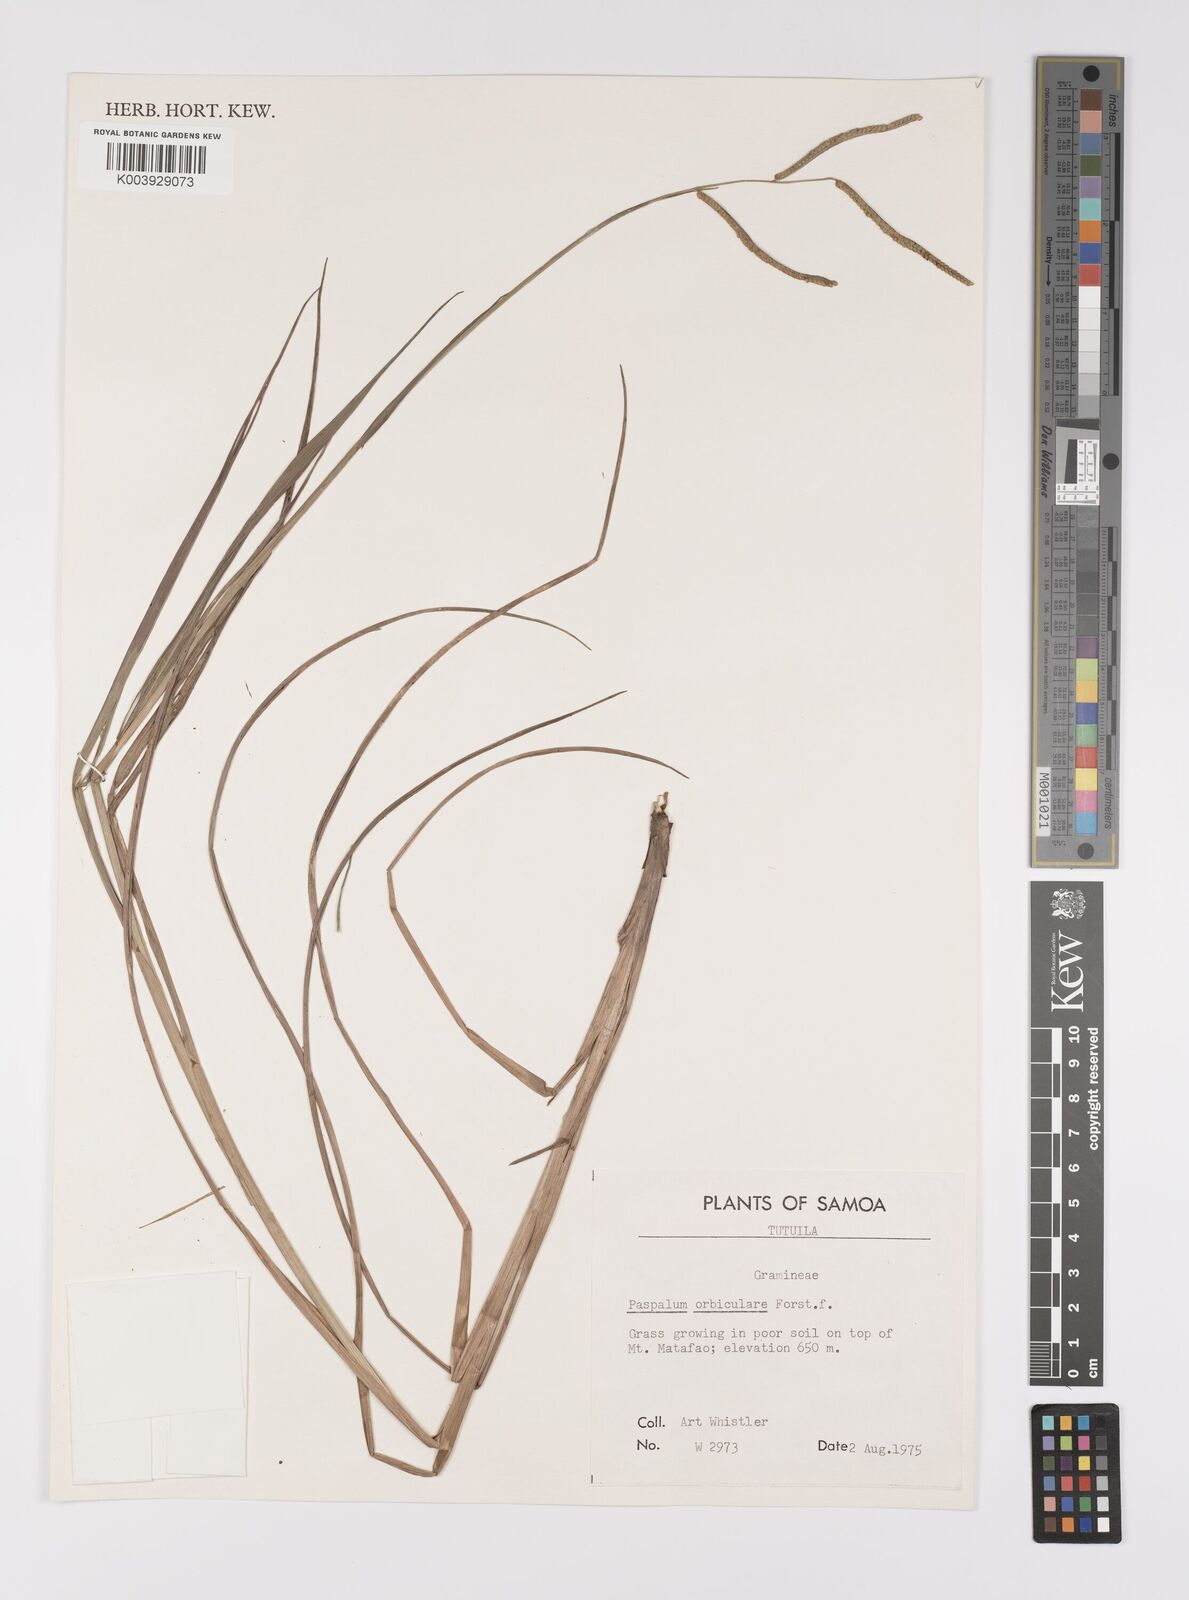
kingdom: Plantae
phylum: Tracheophyta
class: Liliopsida
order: Poales
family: Poaceae
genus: Paspalum
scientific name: Paspalum scrobiculatum
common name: Kodo millet
